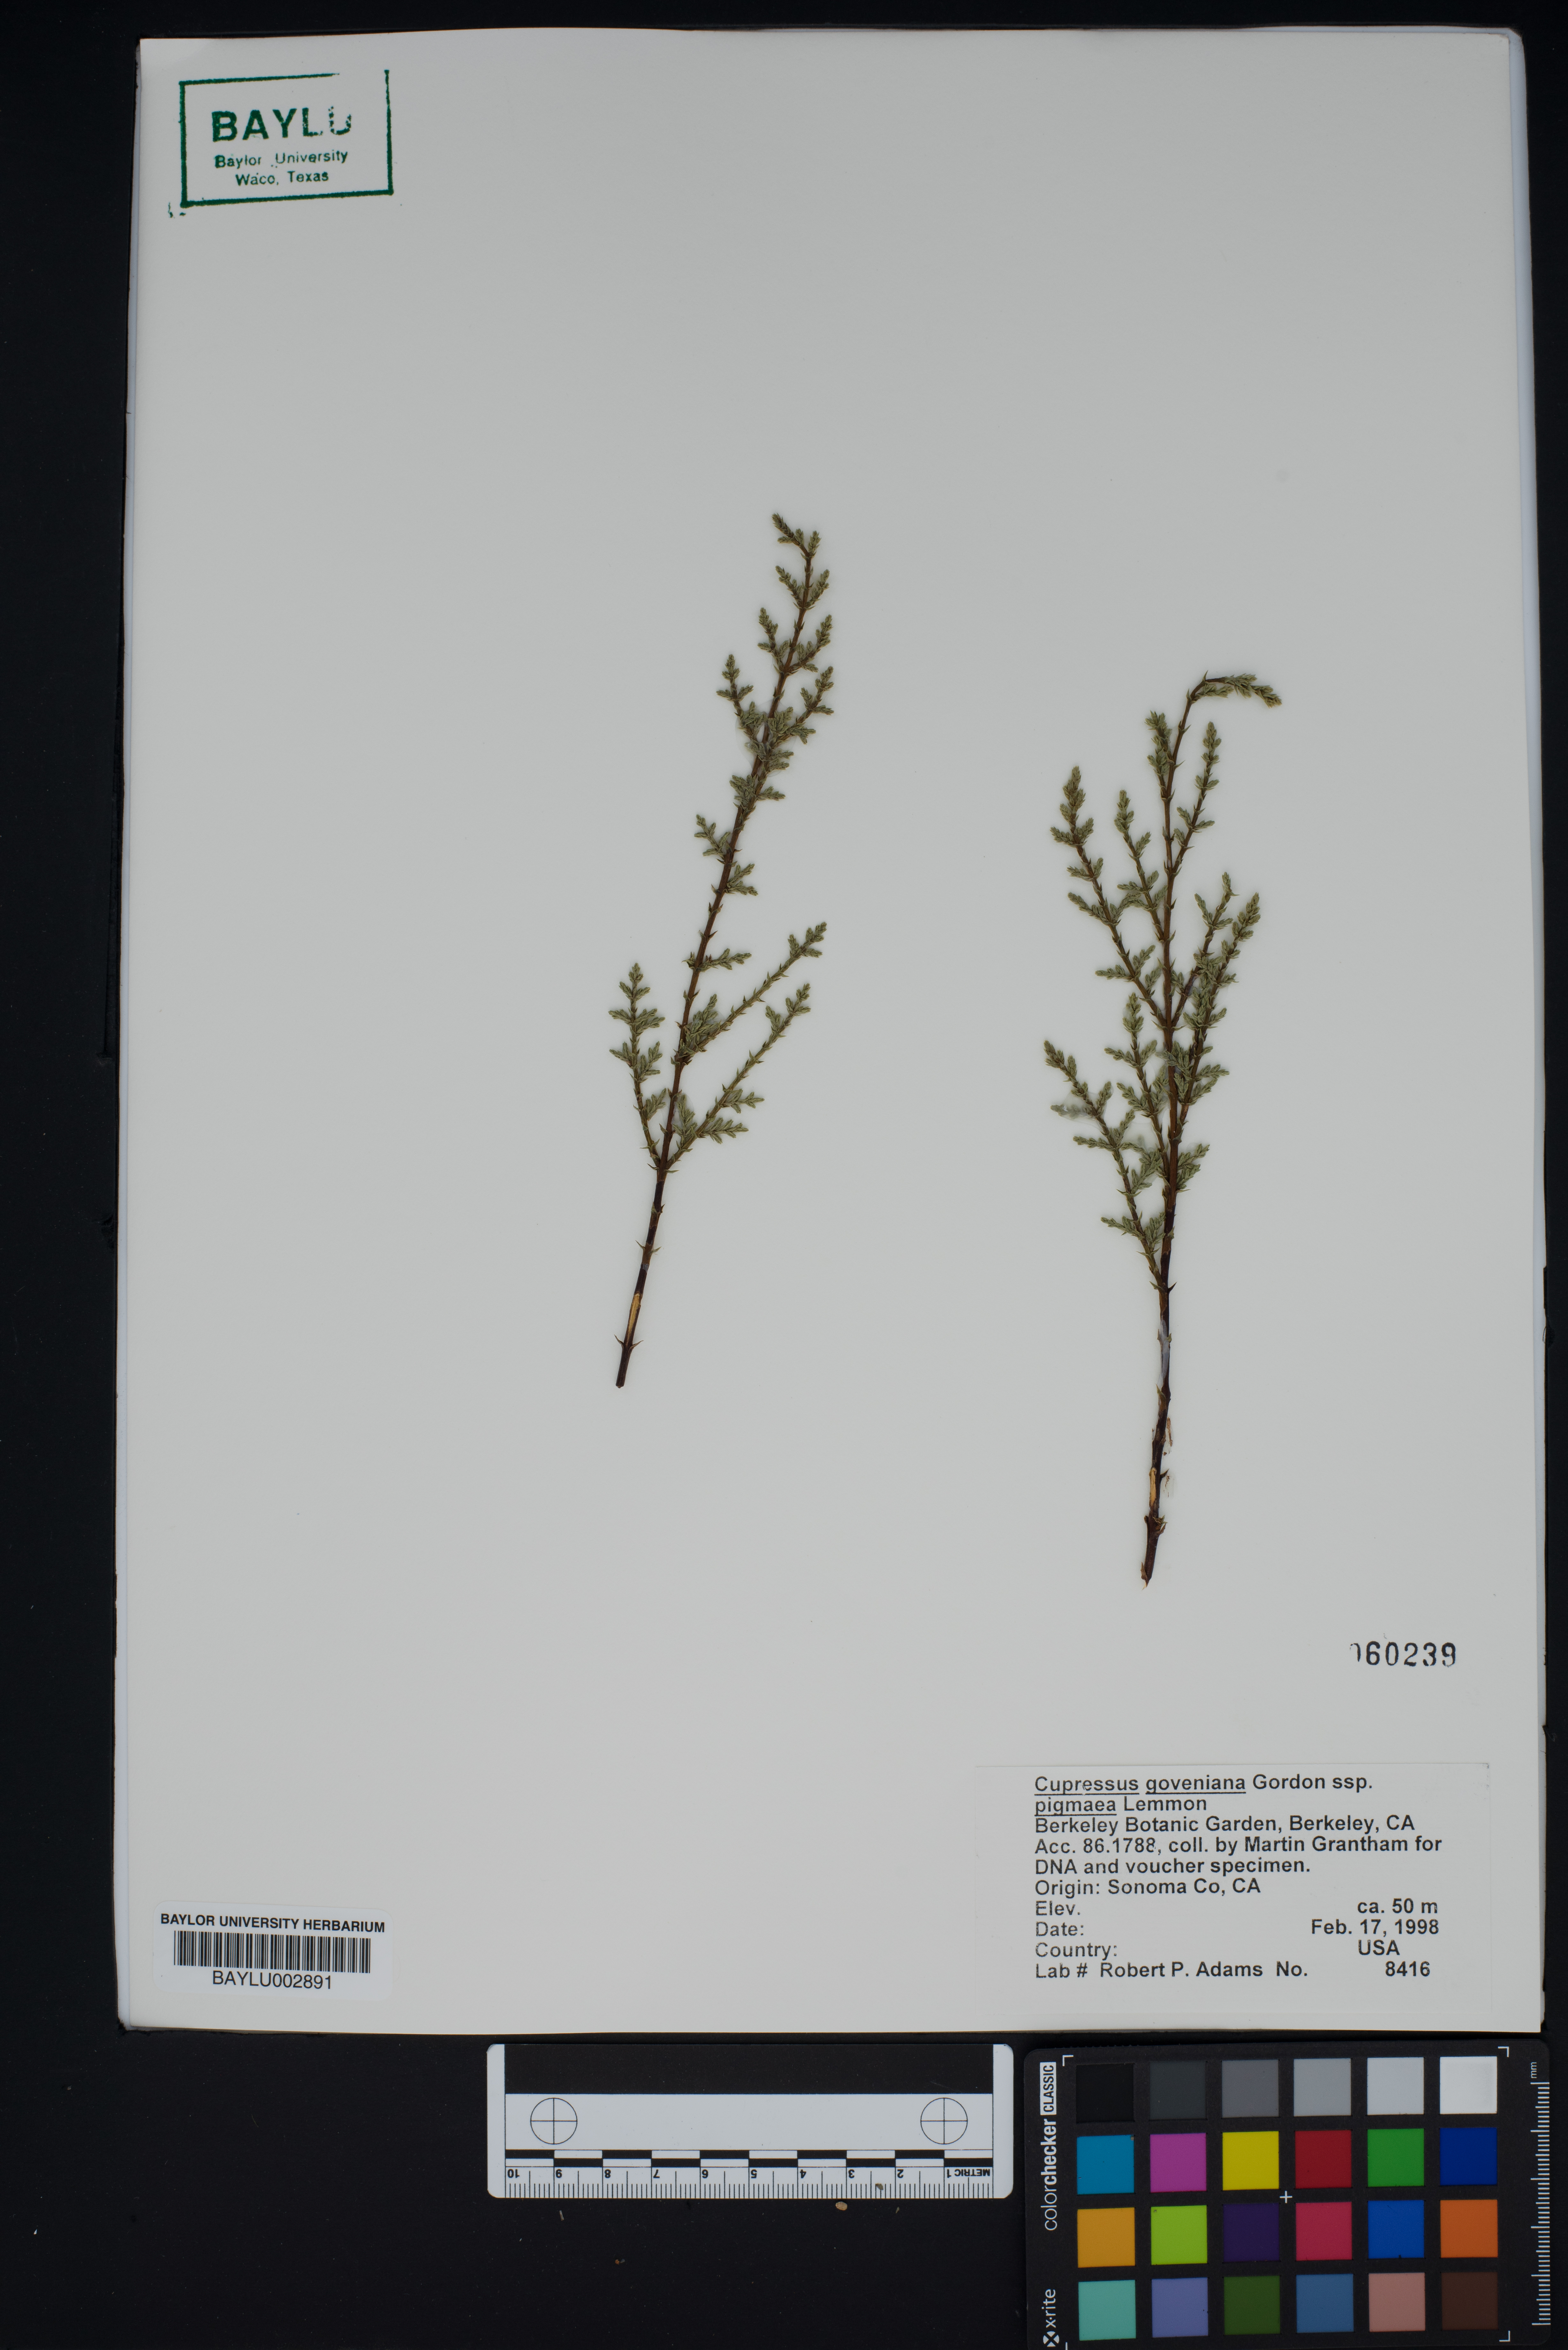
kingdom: Plantae
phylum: Tracheophyta
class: Pinopsida
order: Pinales
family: Cupressaceae
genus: Cupressus
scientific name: Cupressus goveniana
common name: Gowen cypress
